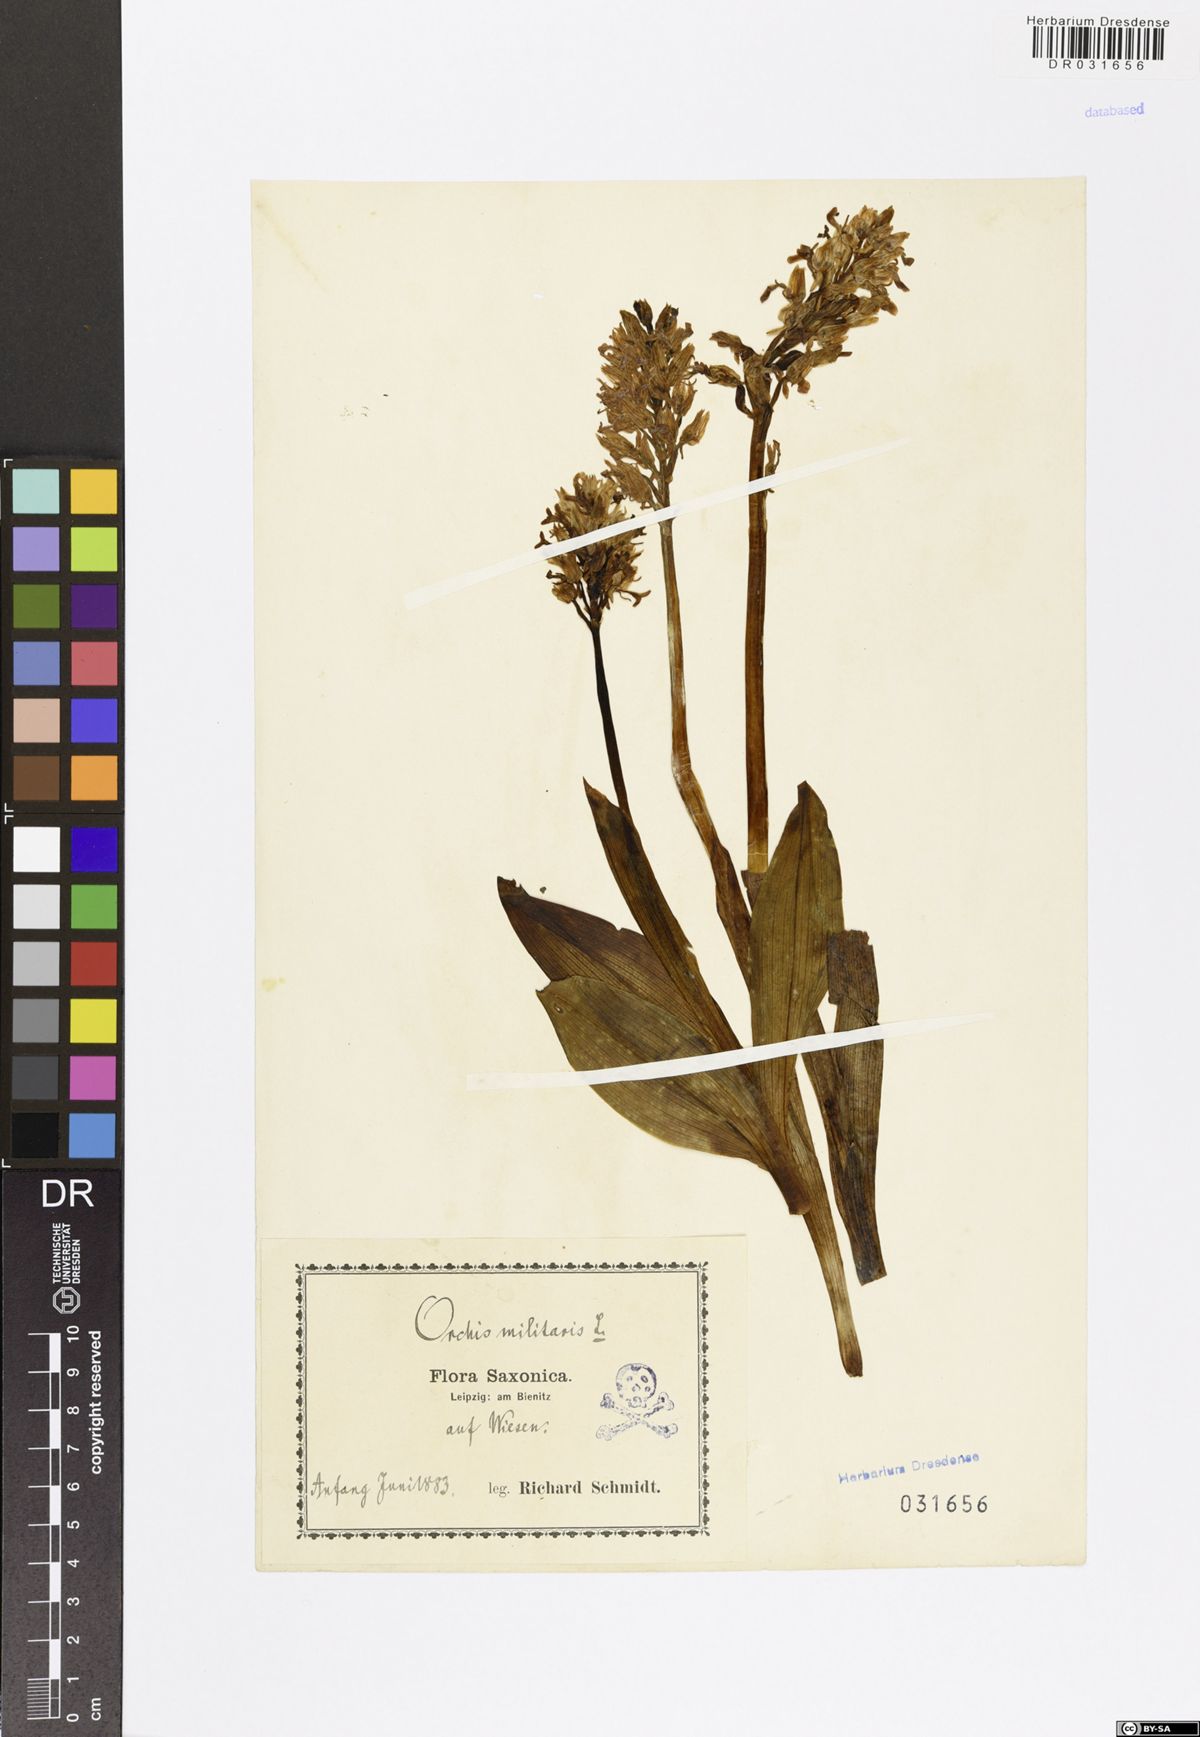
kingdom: Plantae
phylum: Tracheophyta
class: Liliopsida
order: Asparagales
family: Orchidaceae
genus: Orchis
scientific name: Orchis militaris
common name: Military orchid
